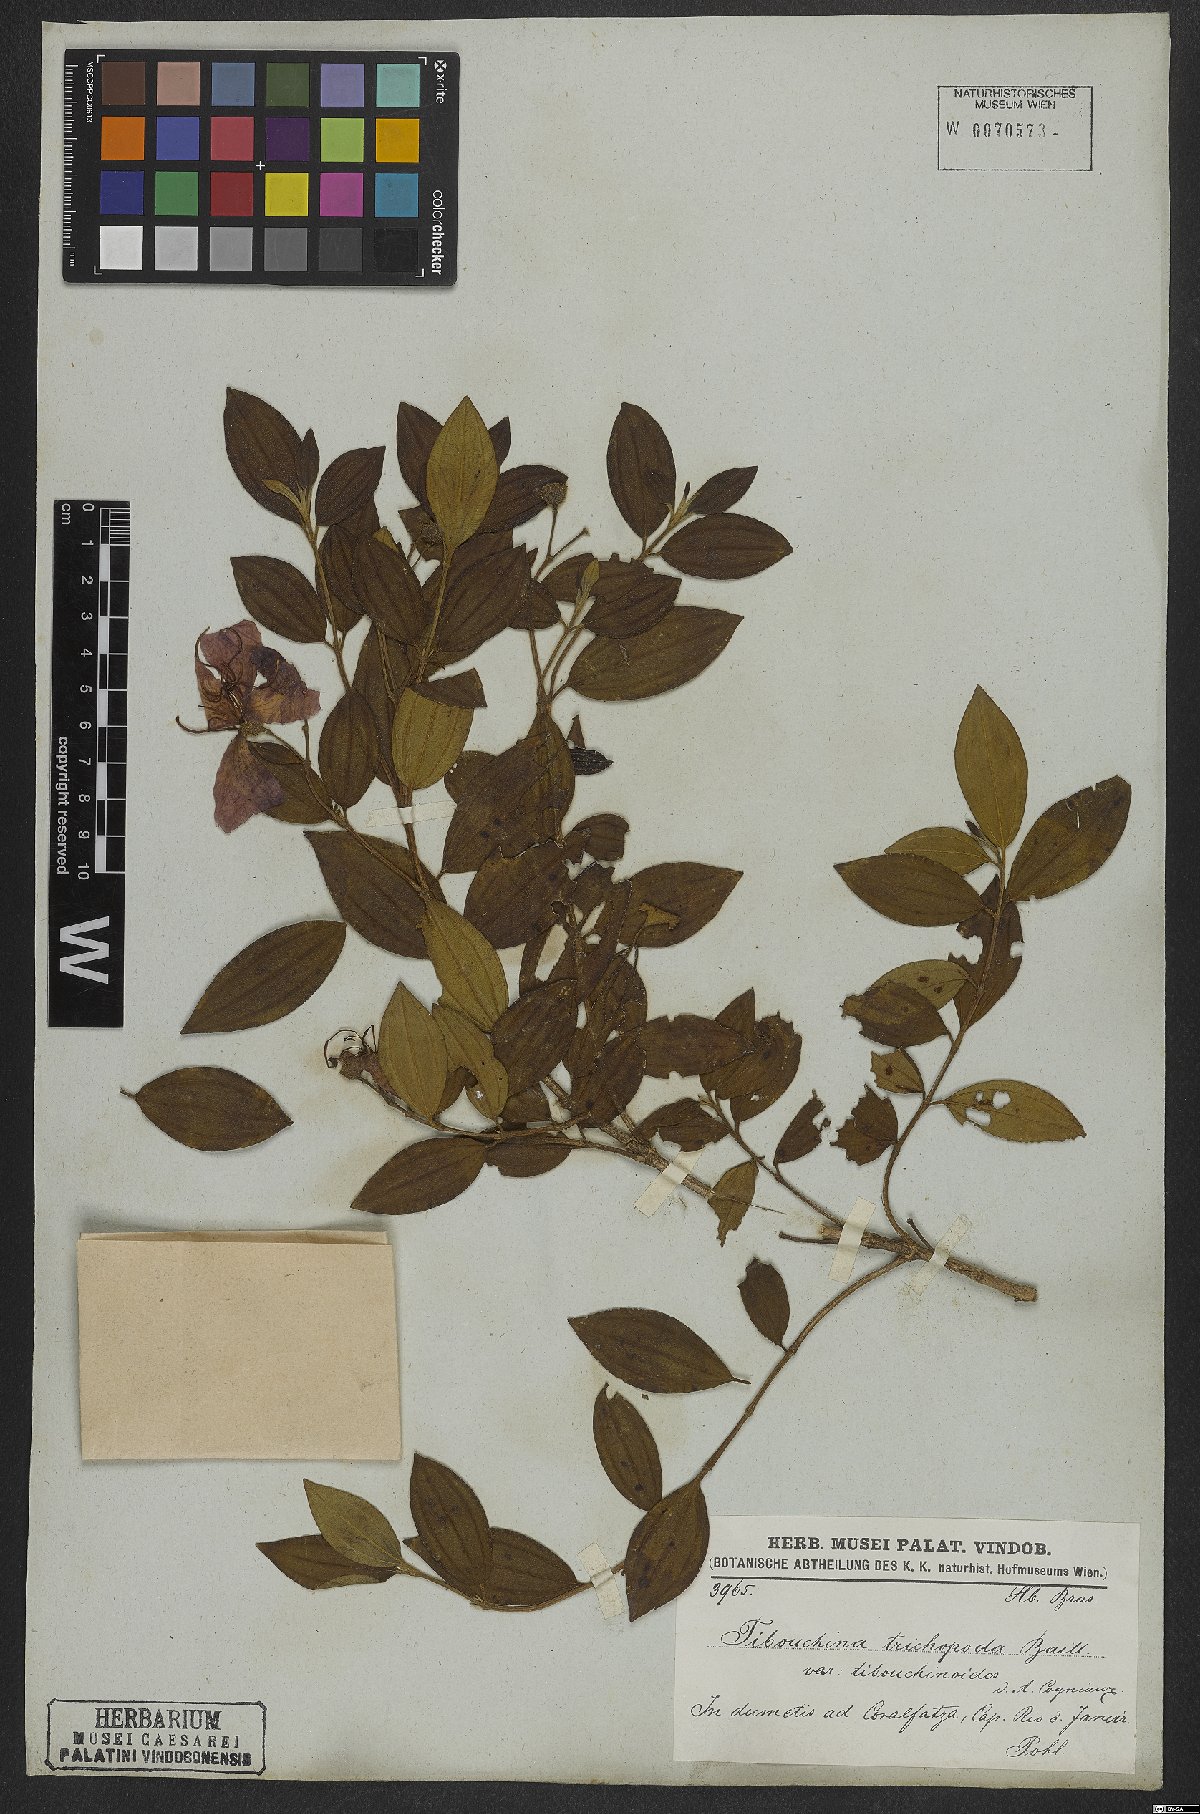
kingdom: Plantae
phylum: Tracheophyta
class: Magnoliopsida
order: Myrtales
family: Melastomataceae
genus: Pleroma
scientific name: Pleroma trichopodum
